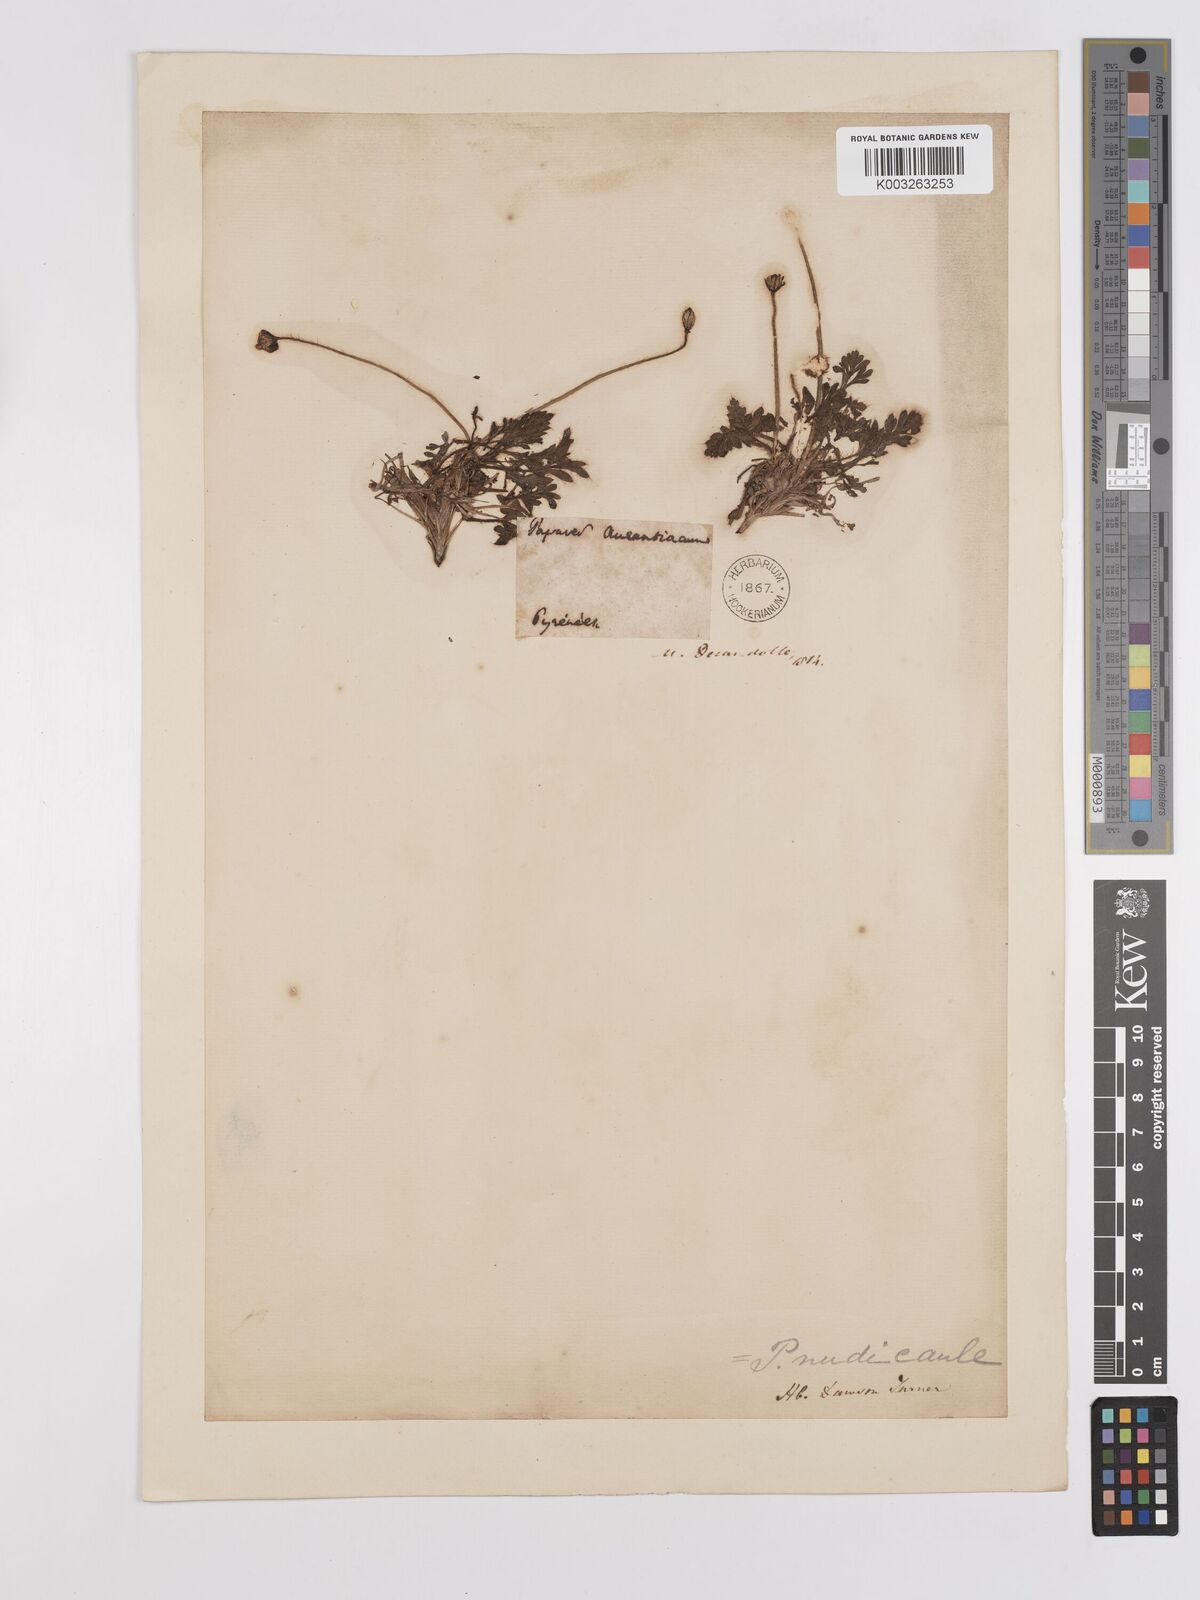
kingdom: Plantae
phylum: Tracheophyta
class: Magnoliopsida
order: Ranunculales
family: Papaveraceae
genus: Papaver
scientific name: Papaver radicatum
